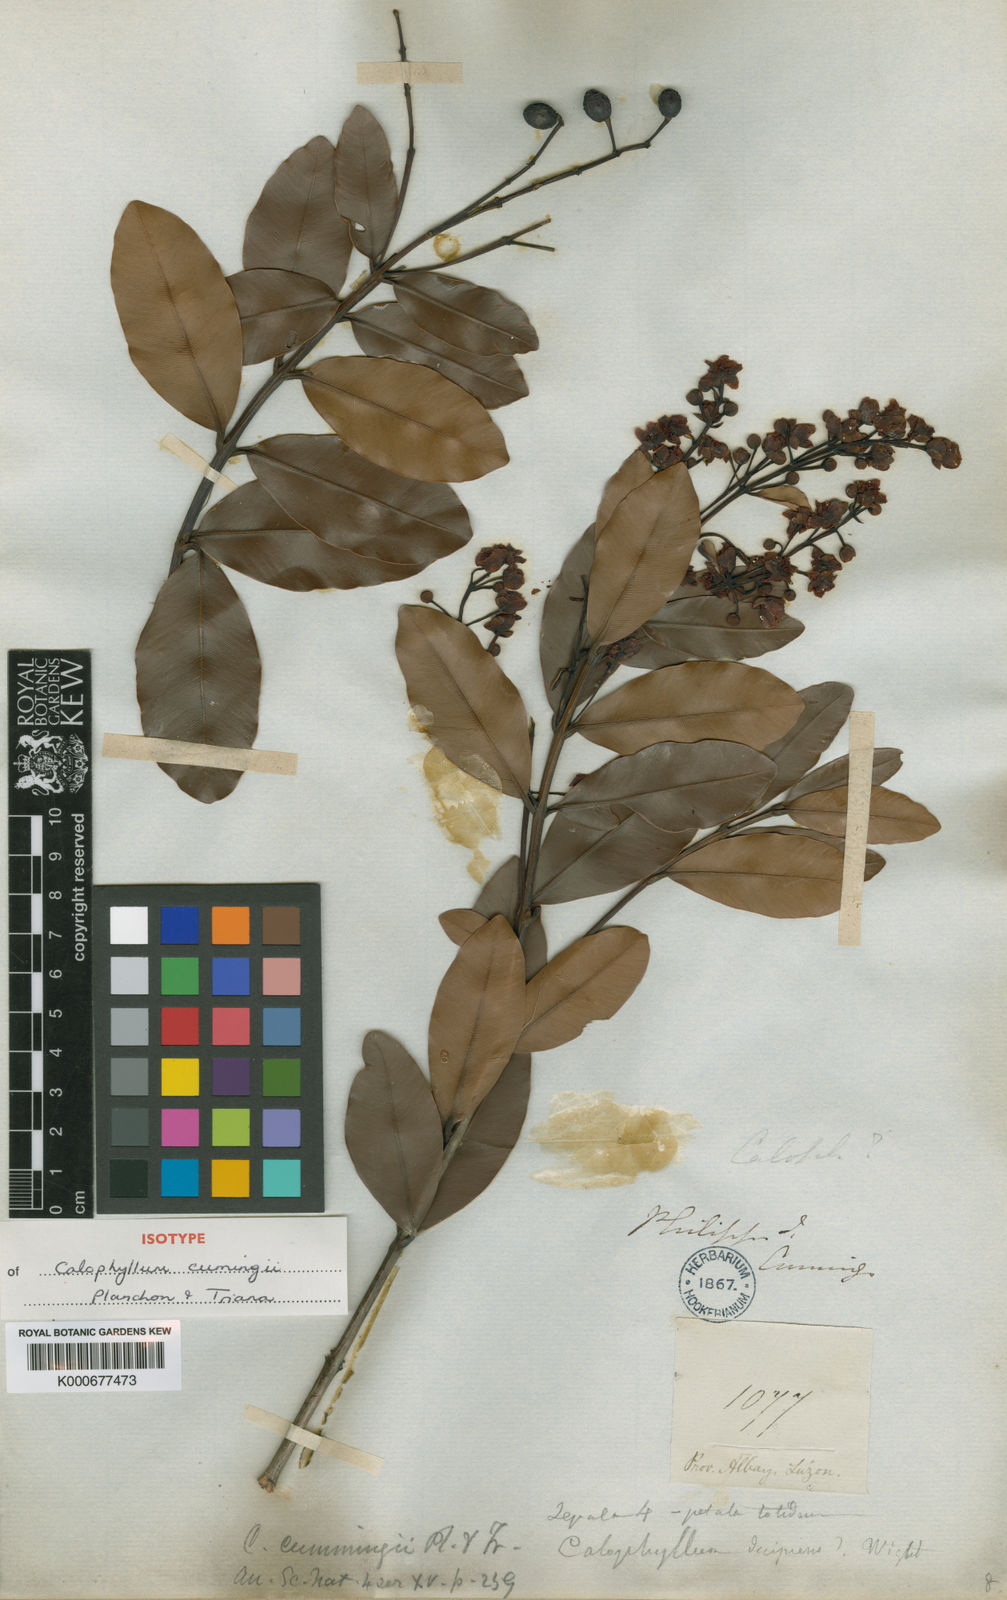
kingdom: Plantae
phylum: Tracheophyta
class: Magnoliopsida
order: Malpighiales
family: Calophyllaceae
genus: Calophyllum
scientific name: Calophyllum pentapetalum
